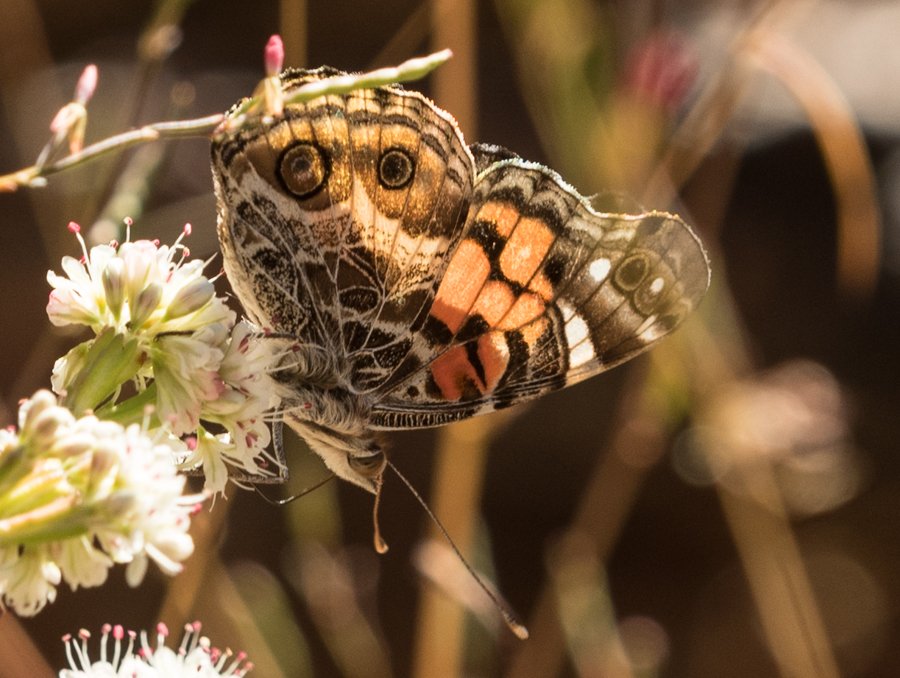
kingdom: Animalia
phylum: Arthropoda
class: Insecta
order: Lepidoptera
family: Nymphalidae
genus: Vanessa
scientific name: Vanessa virginiensis
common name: American Lady
